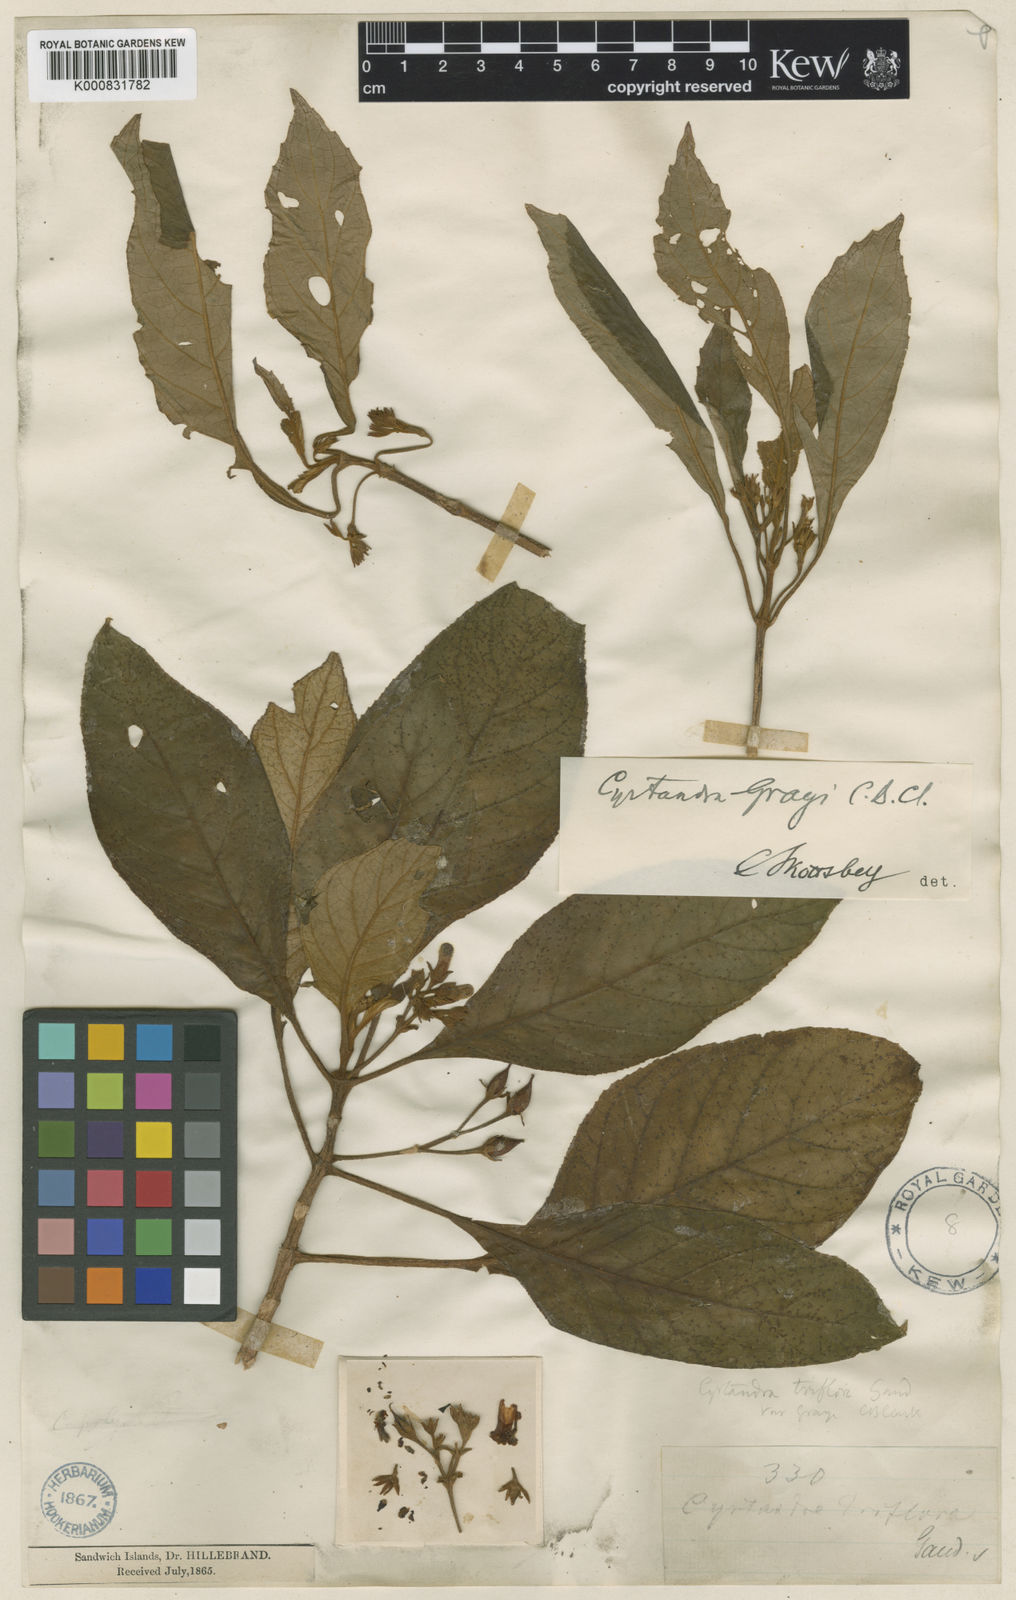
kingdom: Plantae
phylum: Tracheophyta
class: Magnoliopsida
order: Lamiales
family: Gesneriaceae
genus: Cyrtandra
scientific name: Cyrtandra grayi
